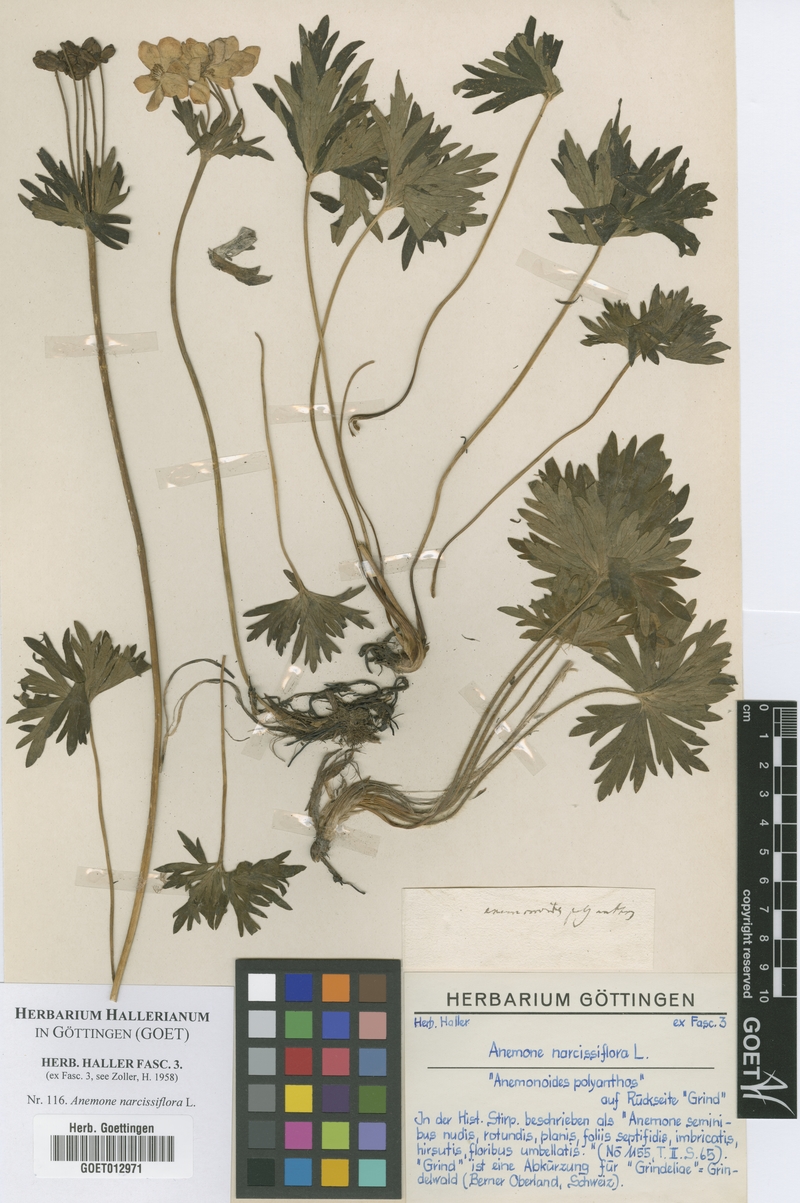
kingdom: Plantae
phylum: Tracheophyta
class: Magnoliopsida
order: Ranunculales
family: Ranunculaceae
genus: Anemonastrum
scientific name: Anemonastrum narcissiflorum
